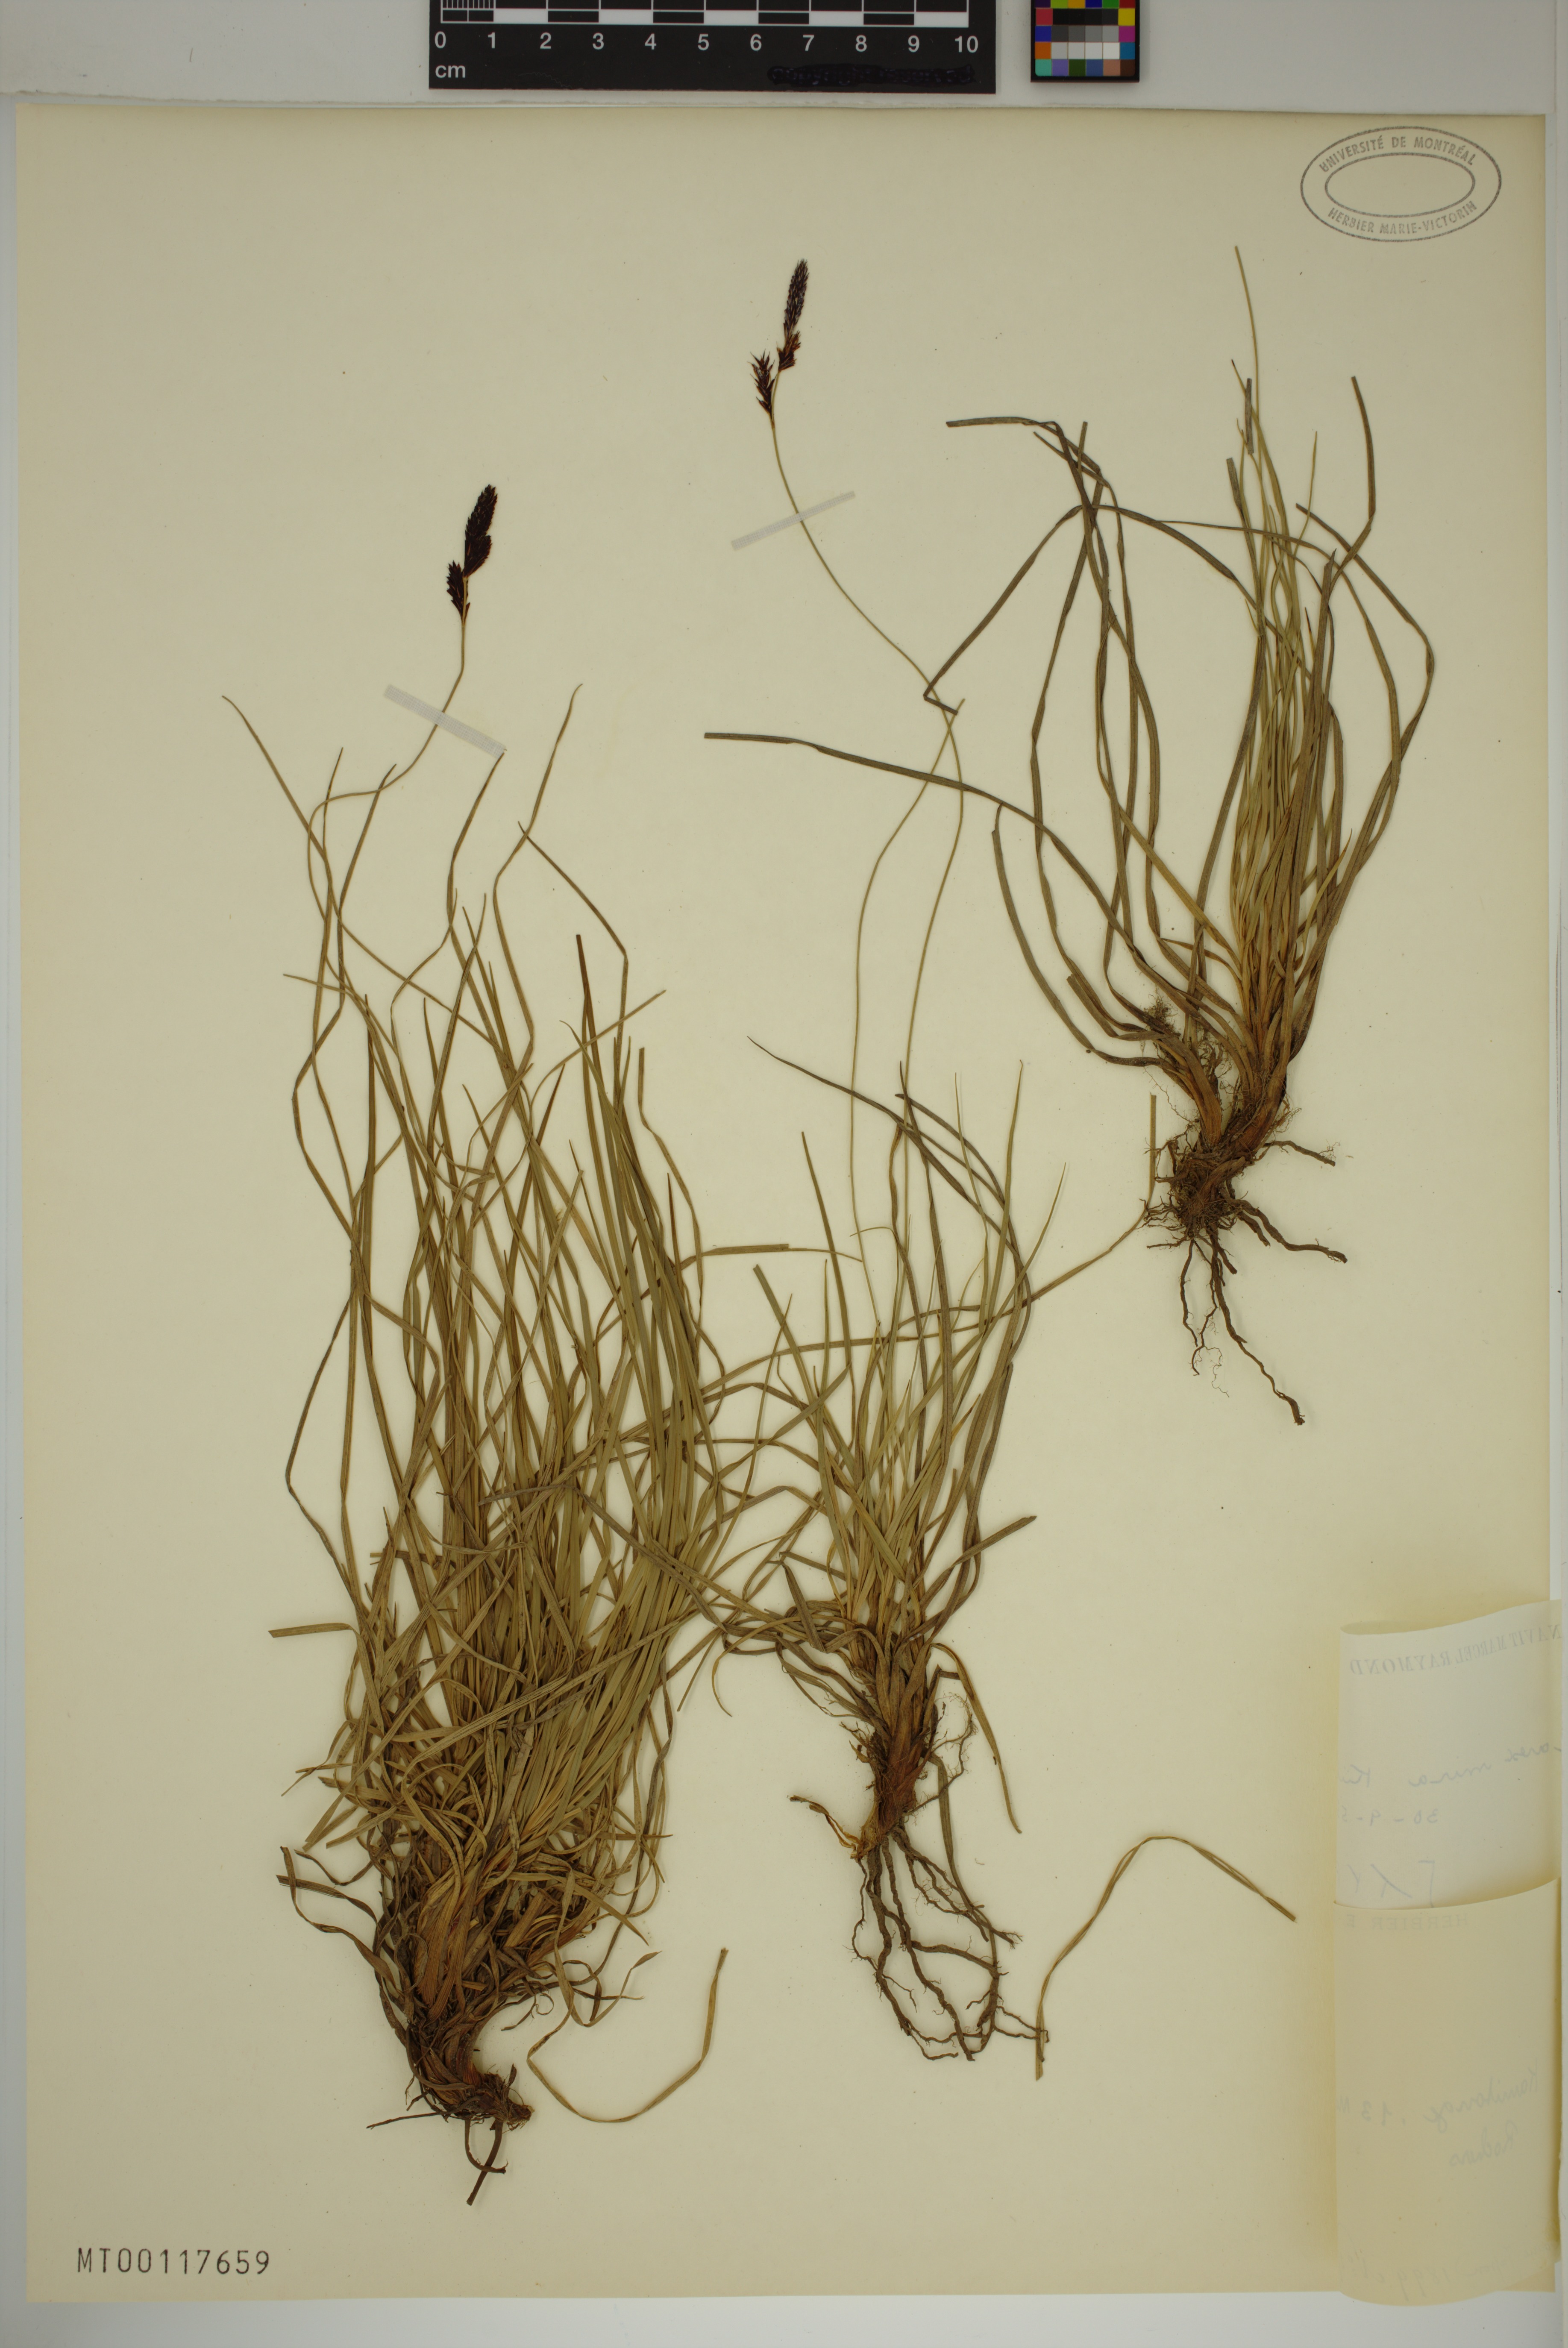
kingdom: Plantae
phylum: Tracheophyta
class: Liliopsida
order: Poales
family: Cyperaceae
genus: Carex
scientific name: Carex mira
